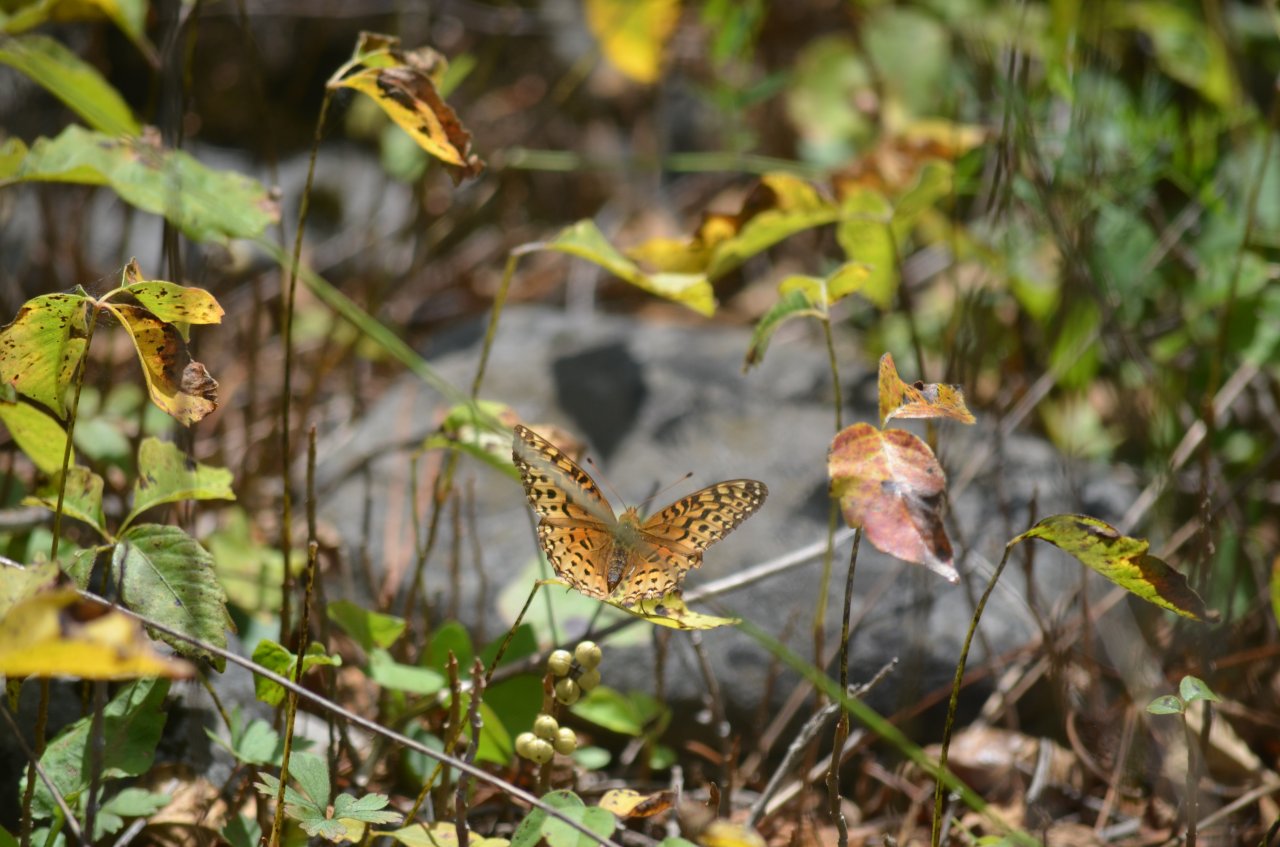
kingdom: Animalia
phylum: Arthropoda
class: Insecta
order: Lepidoptera
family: Nymphalidae
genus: Speyeria
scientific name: Speyeria aphrodite
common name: Aphrodite Fritillary
